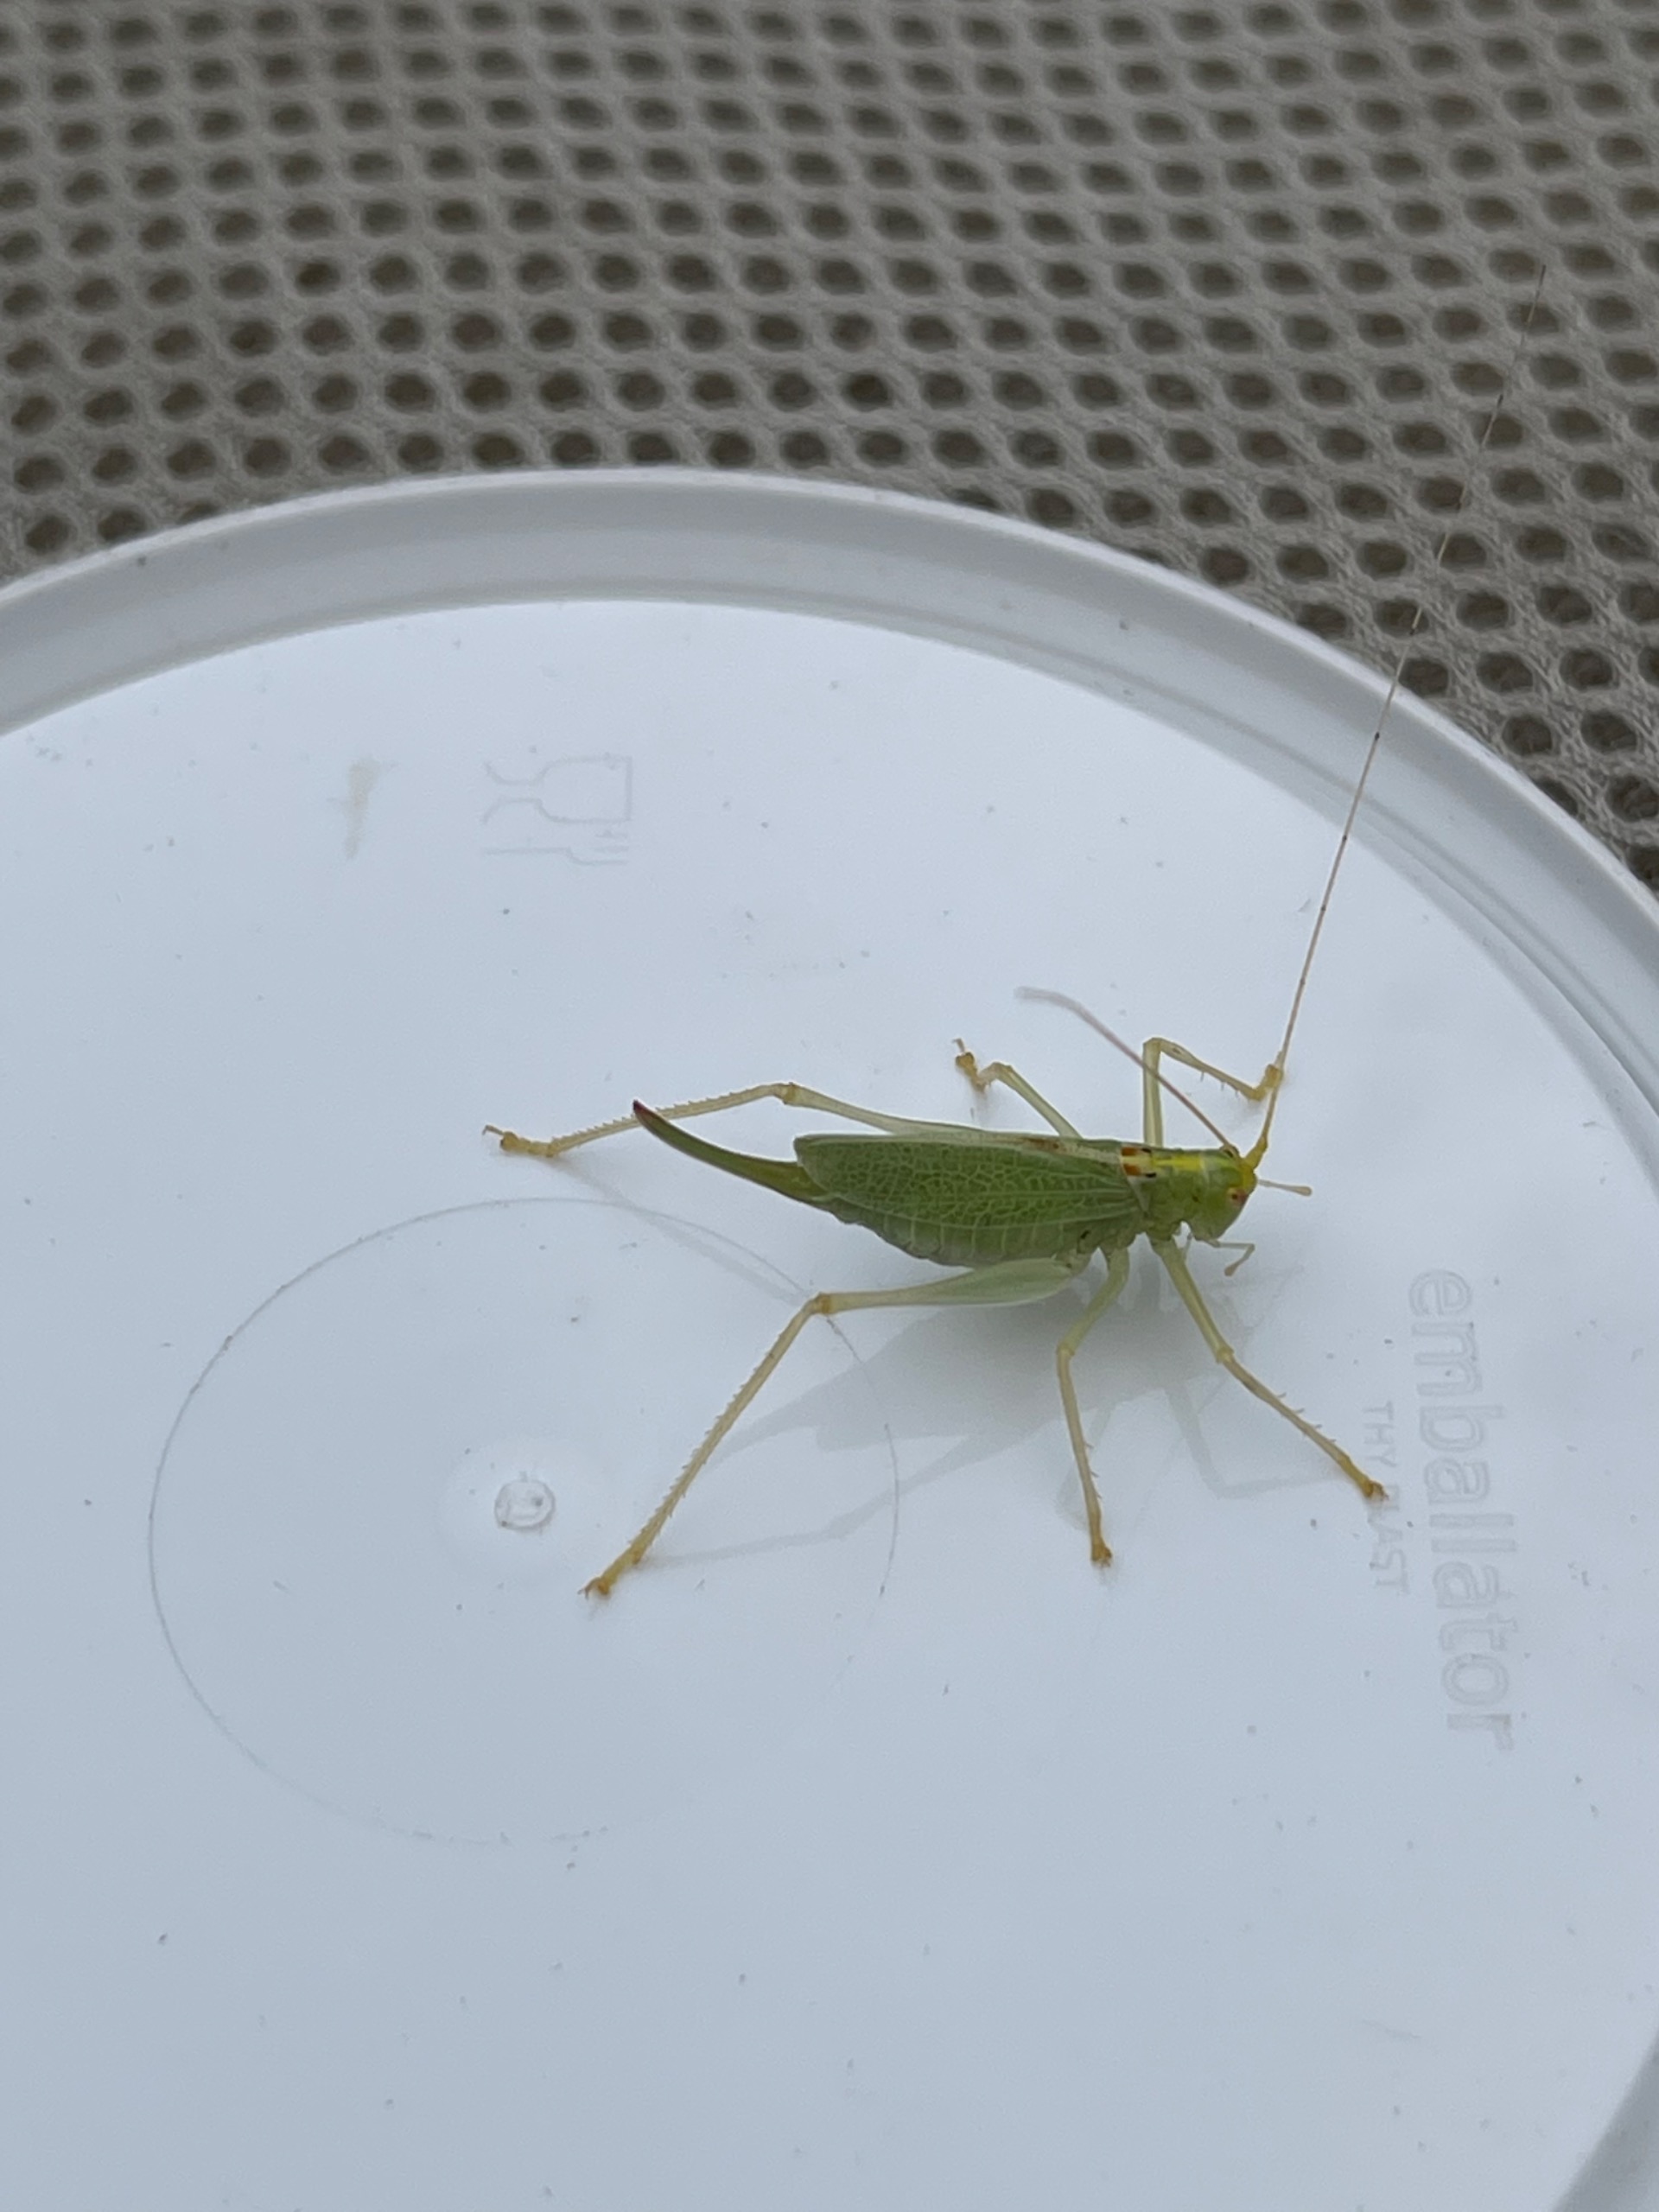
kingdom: Animalia
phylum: Arthropoda
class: Insecta
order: Orthoptera
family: Tettigoniidae
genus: Meconema
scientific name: Meconema thalassinum
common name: Egegræshoppe
